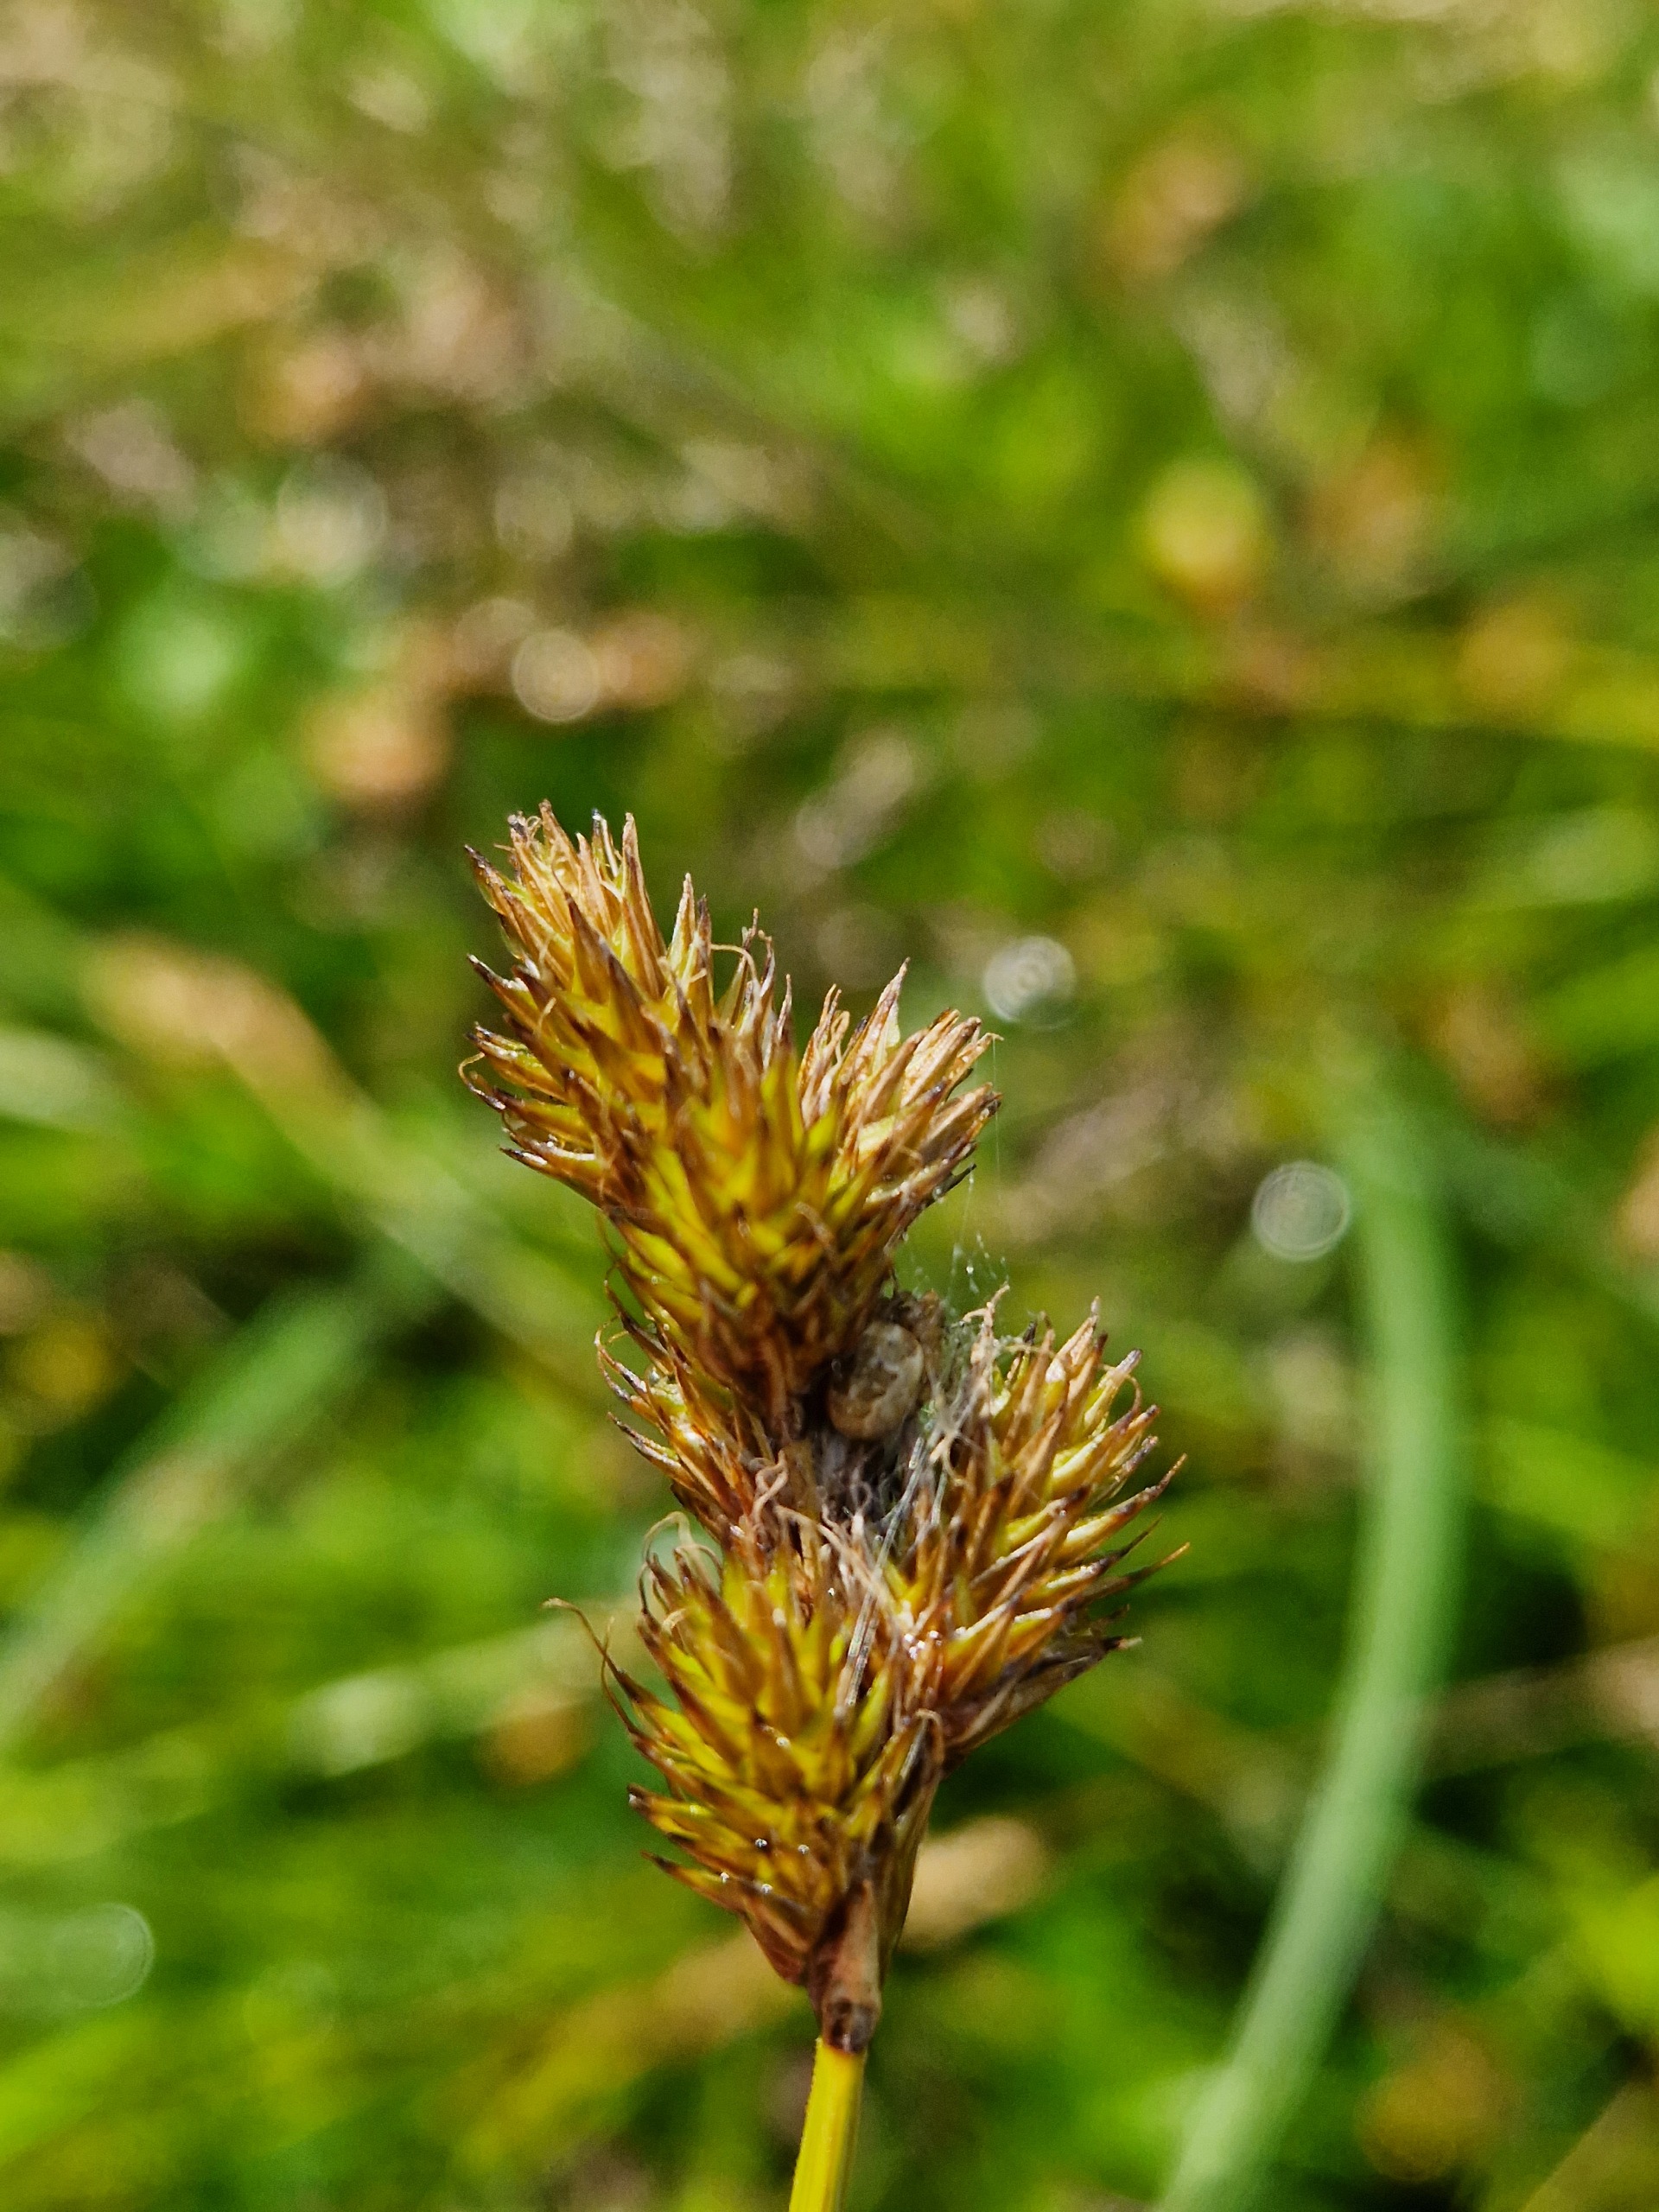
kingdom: Plantae
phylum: Tracheophyta
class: Liliopsida
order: Poales
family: Cyperaceae
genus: Carex
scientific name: Carex leporina
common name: Hare-star
